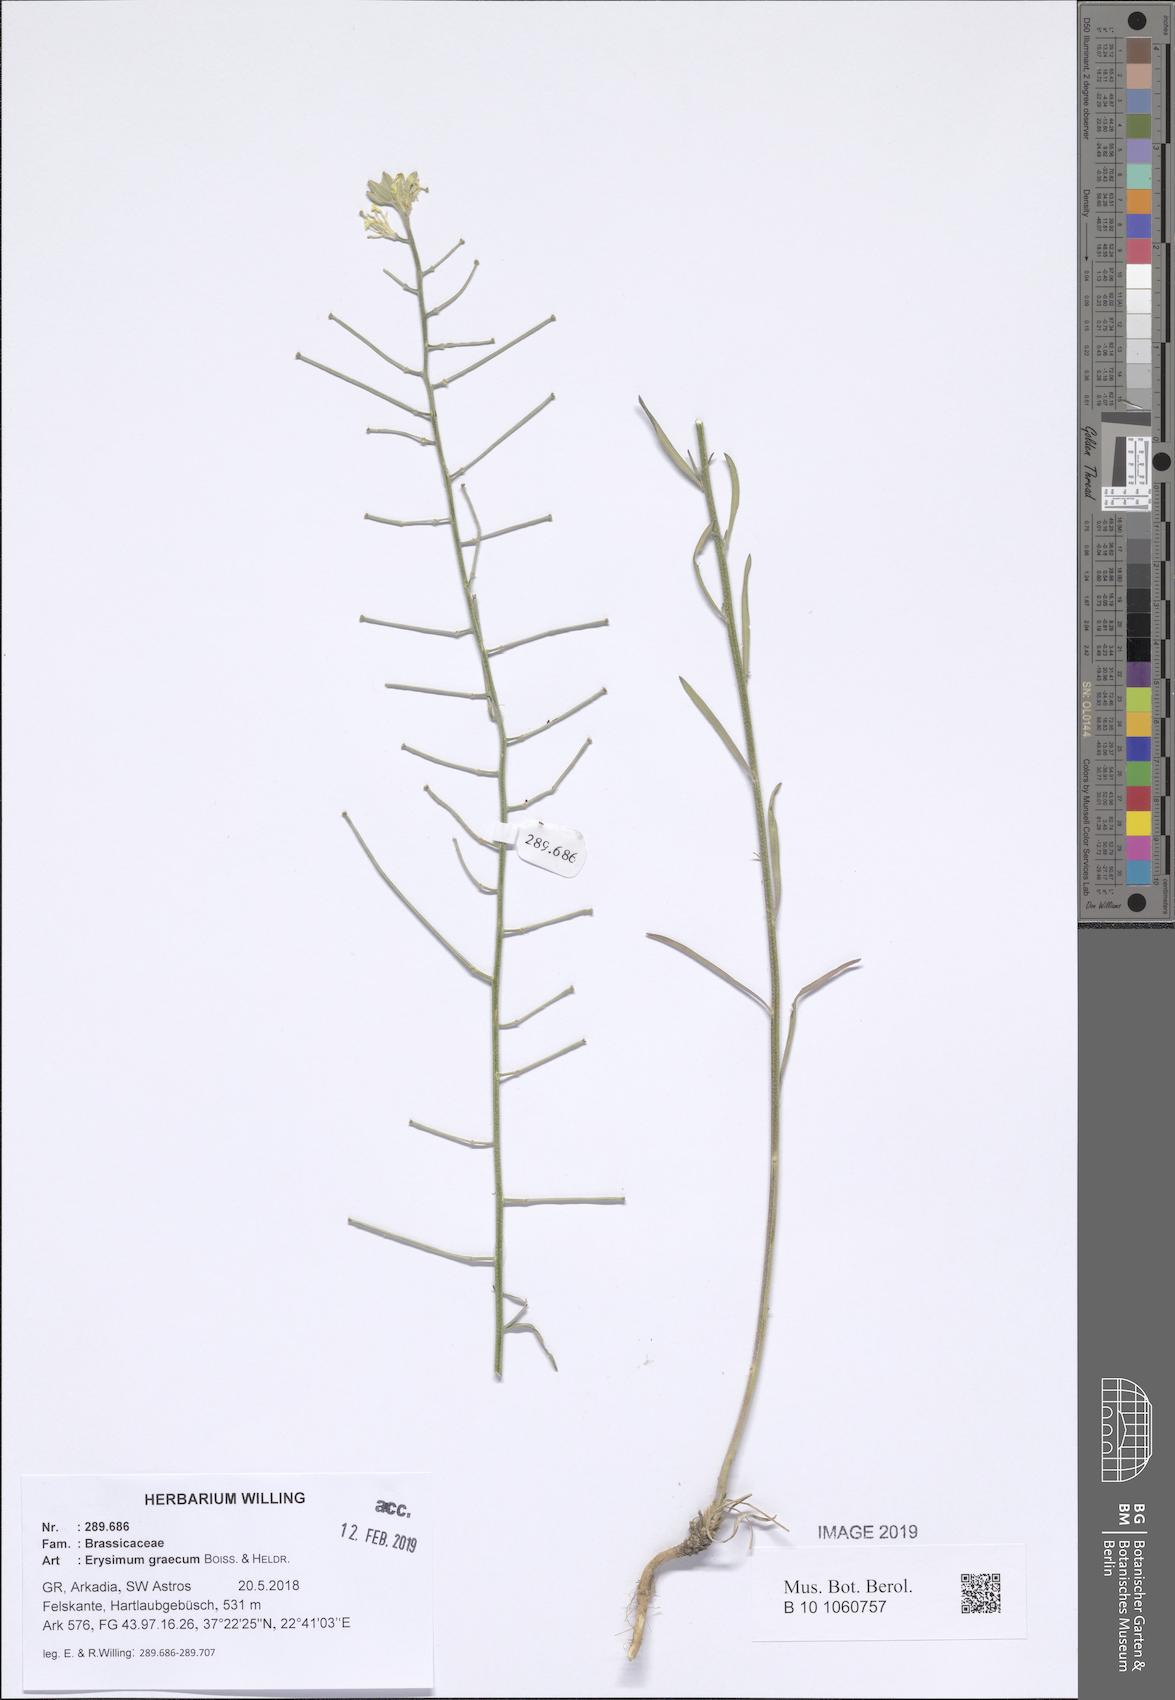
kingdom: Plantae
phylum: Tracheophyta
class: Magnoliopsida
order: Brassicales
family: Brassicaceae
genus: Erysimum
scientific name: Erysimum graecum
